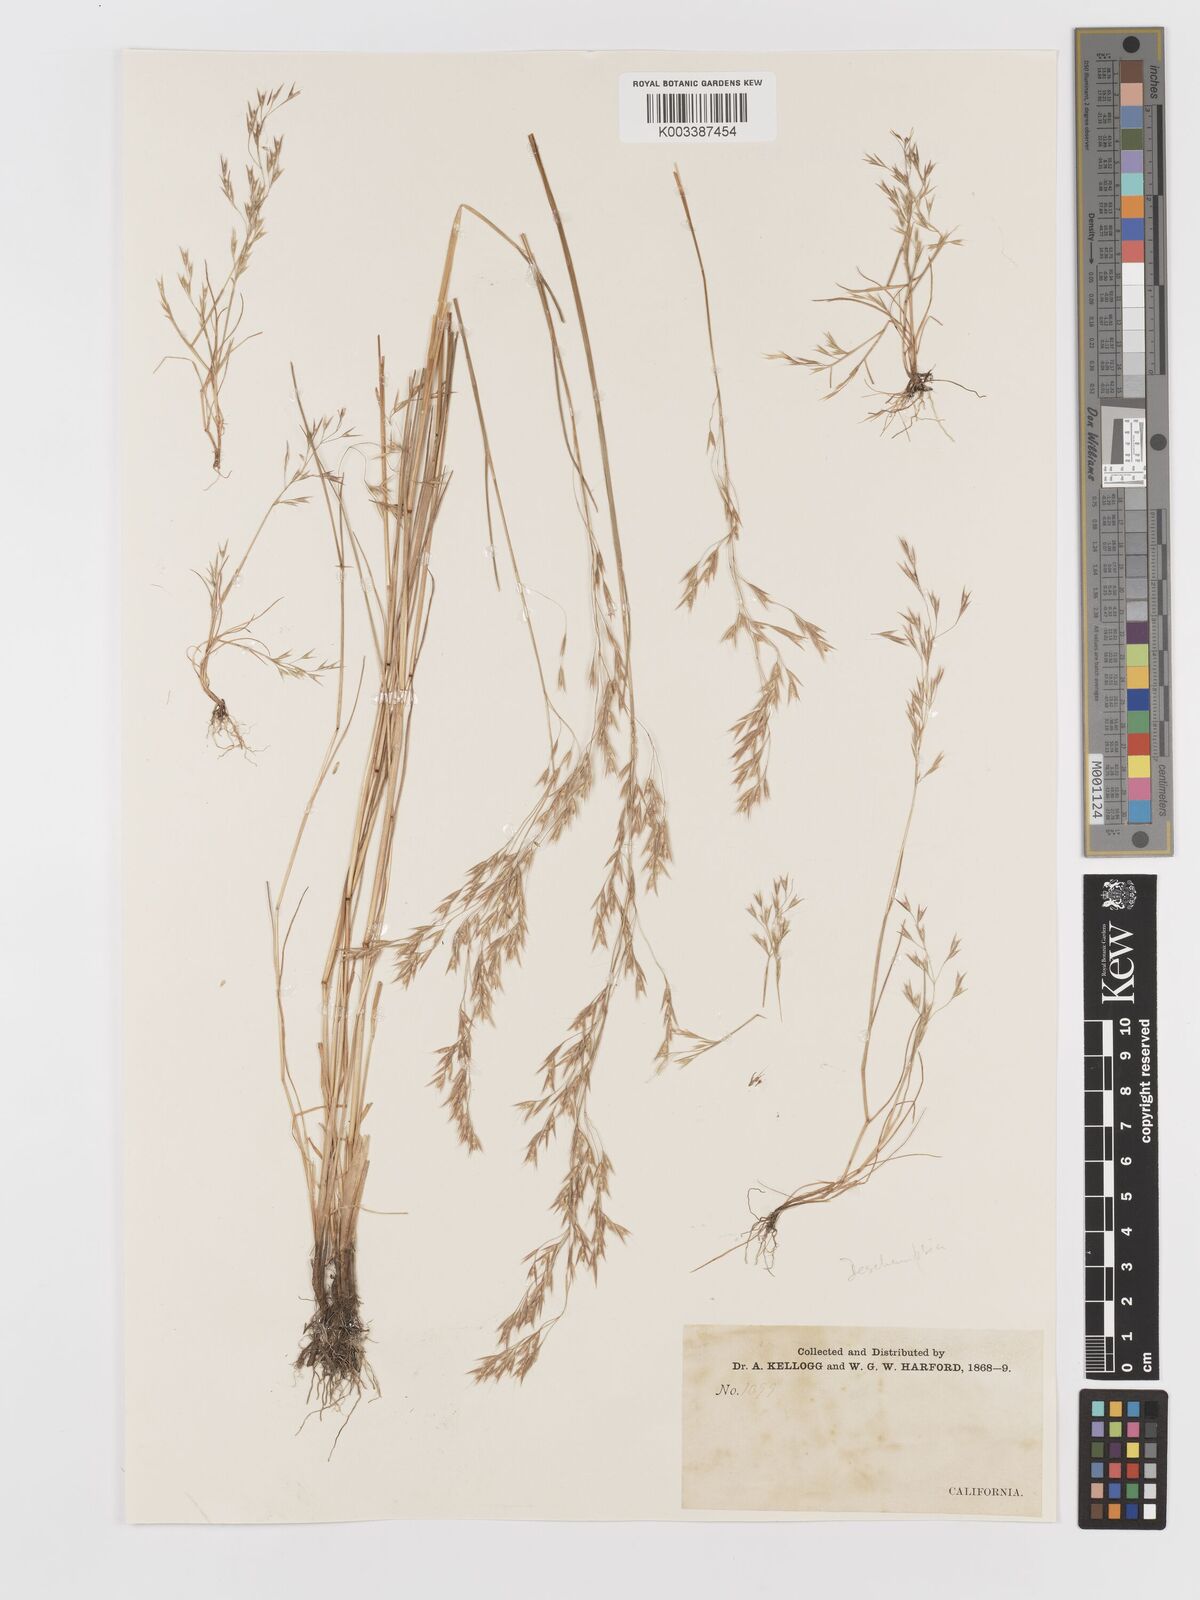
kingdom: Plantae
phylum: Tracheophyta
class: Liliopsida
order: Poales
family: Poaceae
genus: Deschampsia
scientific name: Deschampsia
